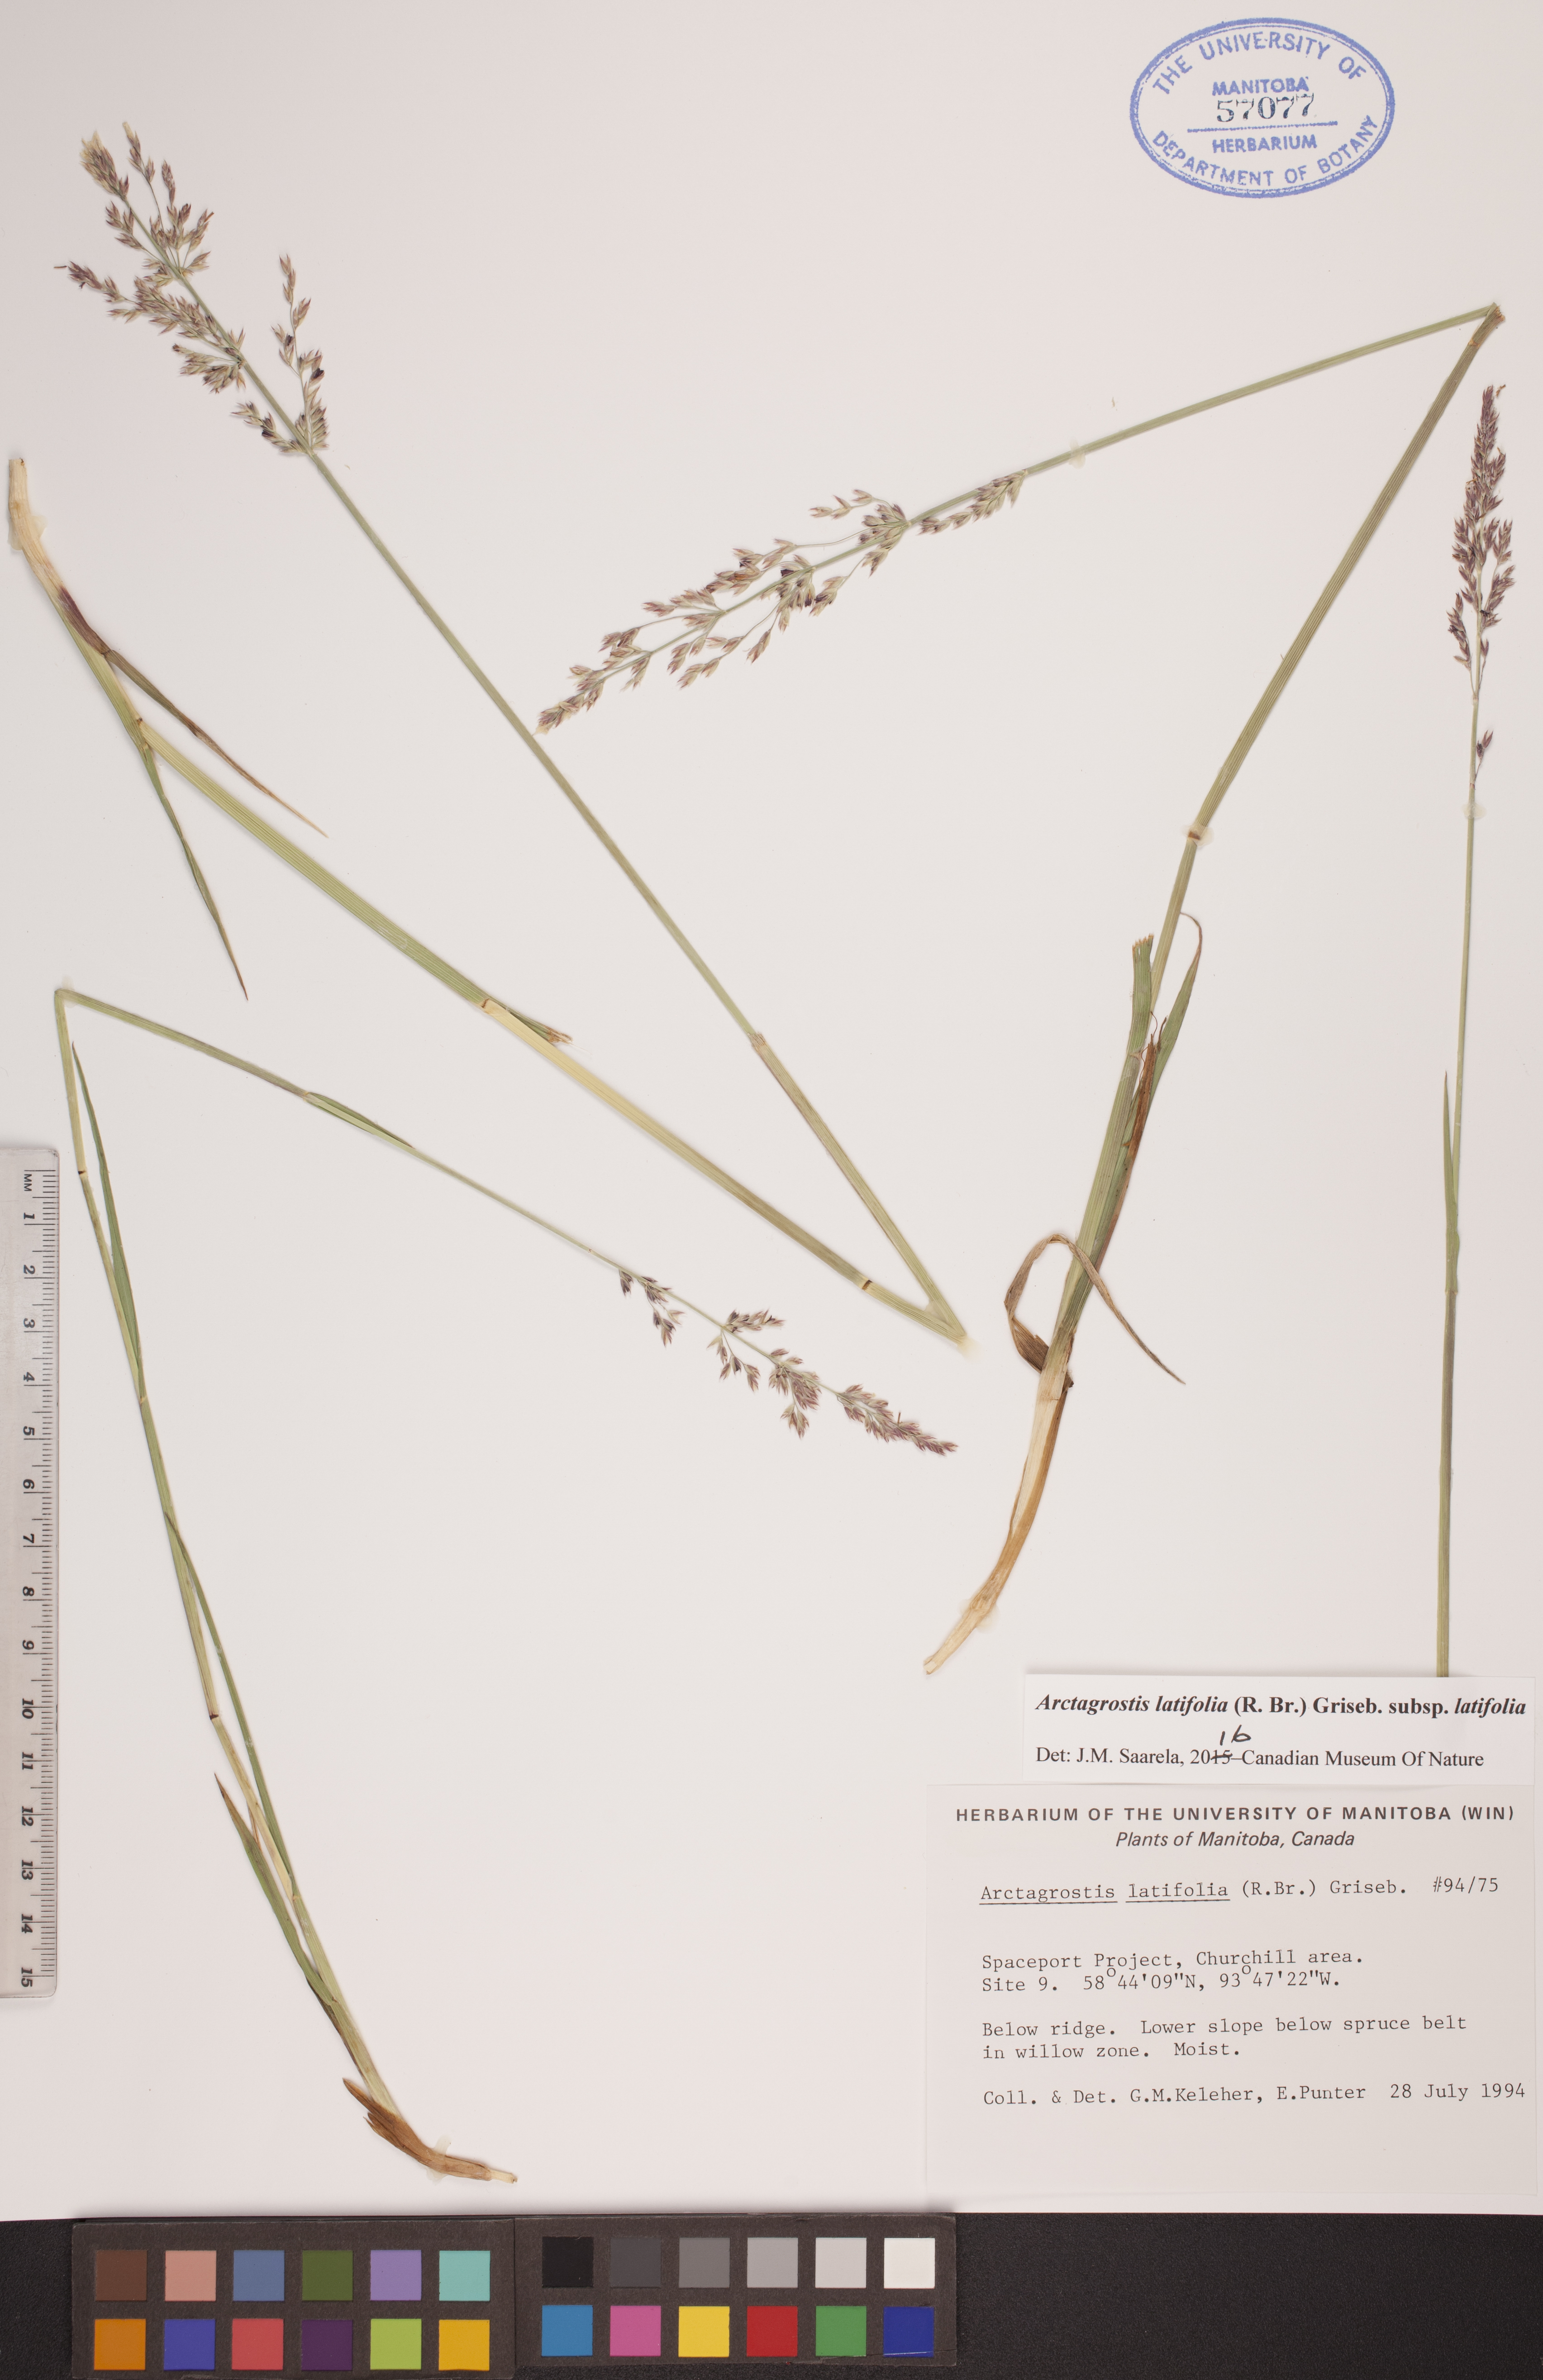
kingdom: Plantae
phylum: Tracheophyta
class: Liliopsida
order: Poales
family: Poaceae
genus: Arctagrostis
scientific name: Arctagrostis latifolia
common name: Arctic grass
